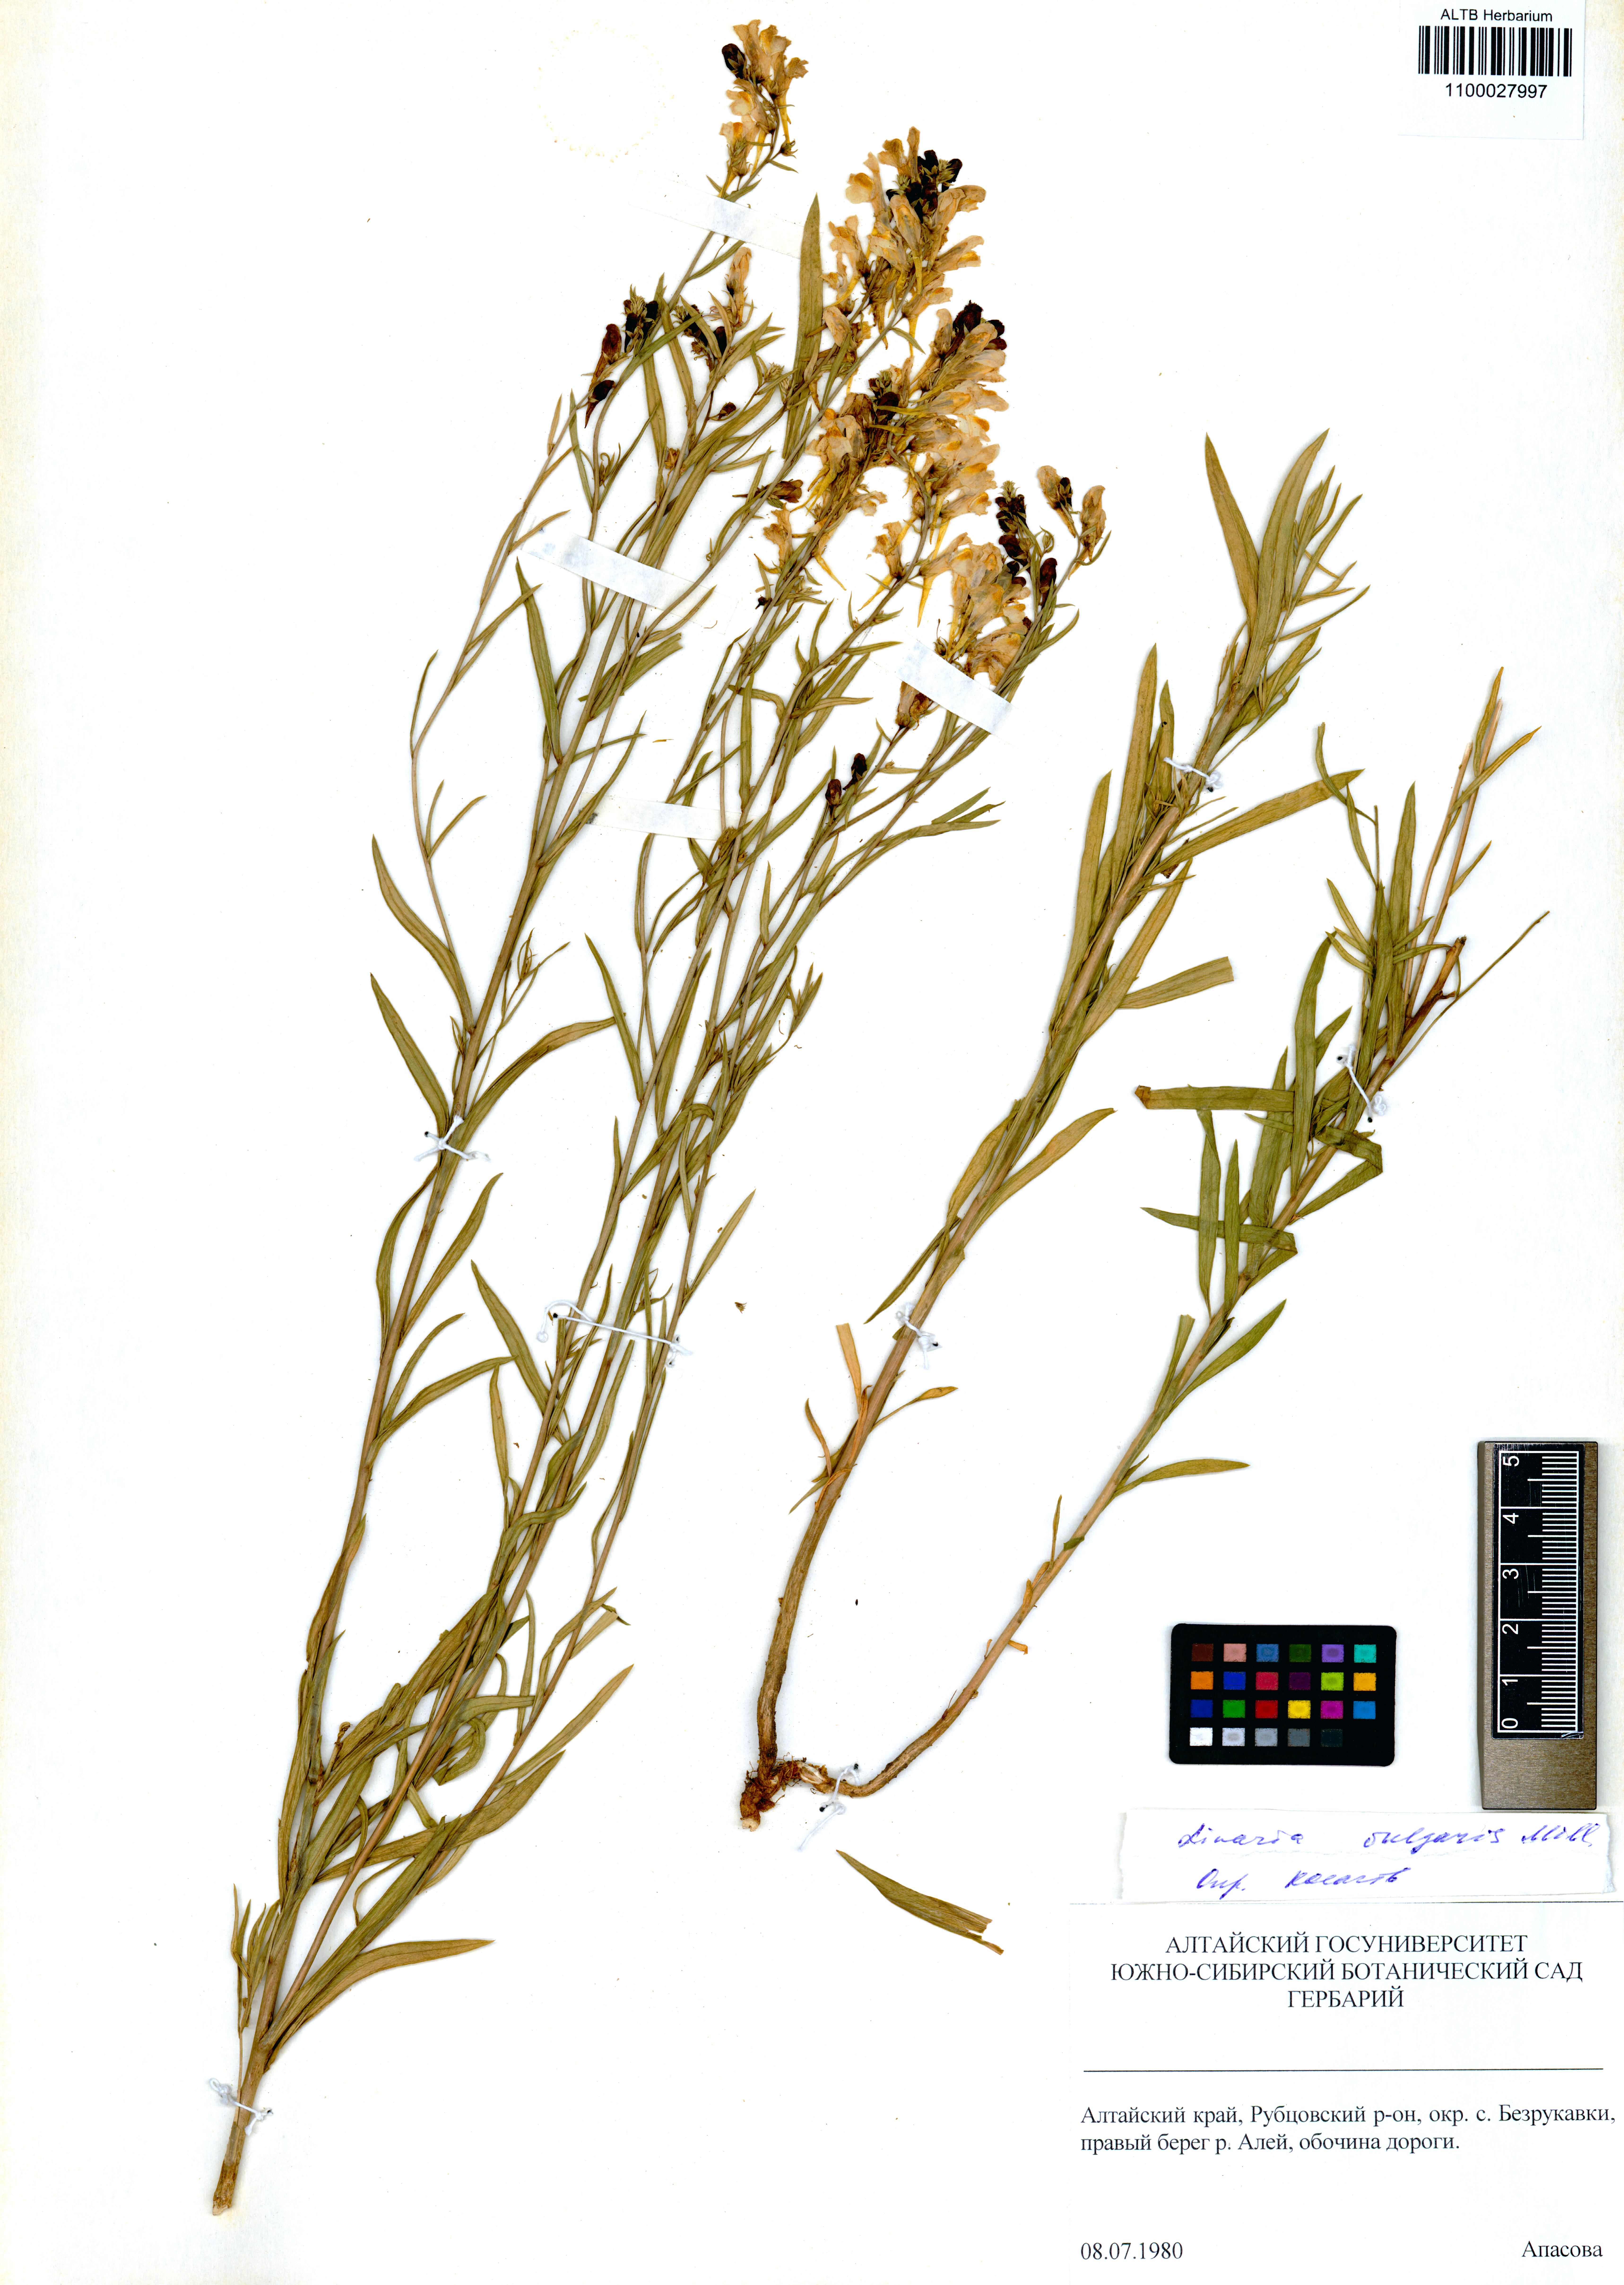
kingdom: Plantae
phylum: Tracheophyta
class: Magnoliopsida
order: Lamiales
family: Plantaginaceae
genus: Linaria
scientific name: Linaria vulgaris
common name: Butter and eggs
